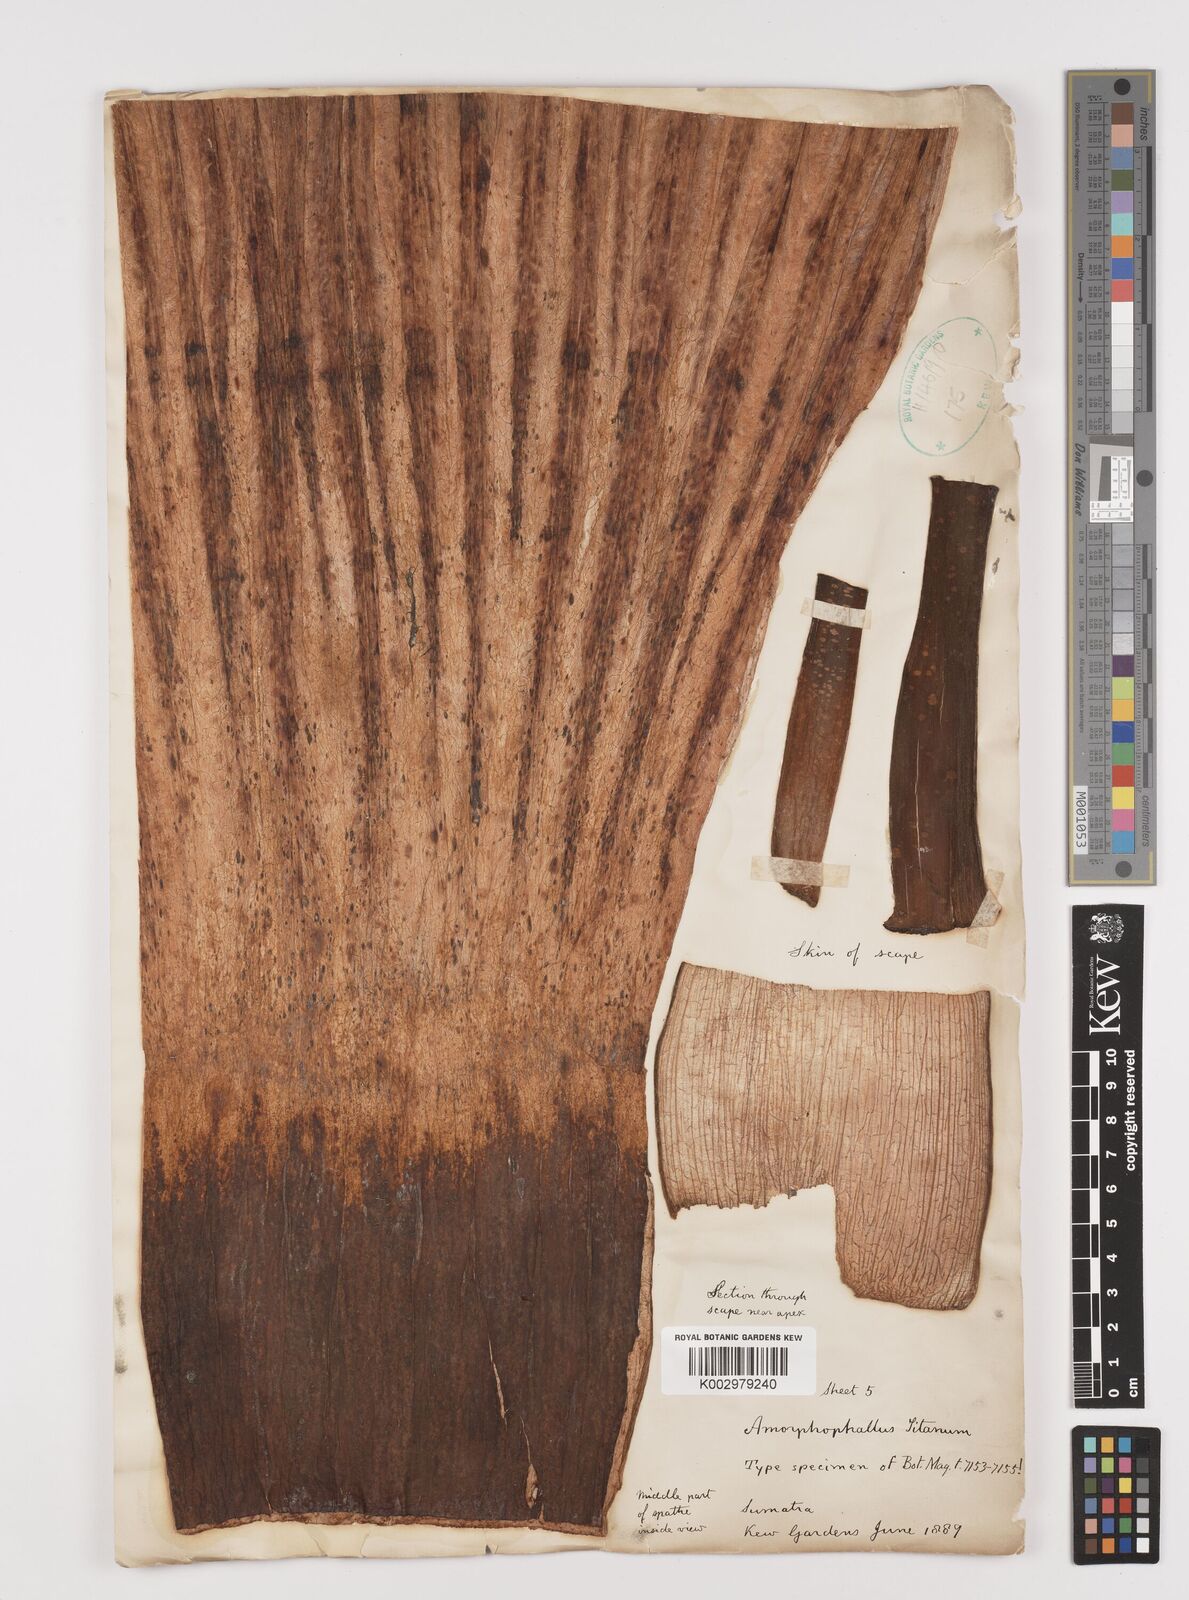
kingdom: Plantae
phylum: Tracheophyta
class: Liliopsida
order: Alismatales
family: Araceae
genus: Amorphophallus
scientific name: Amorphophallus titanum
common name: Titan arum
